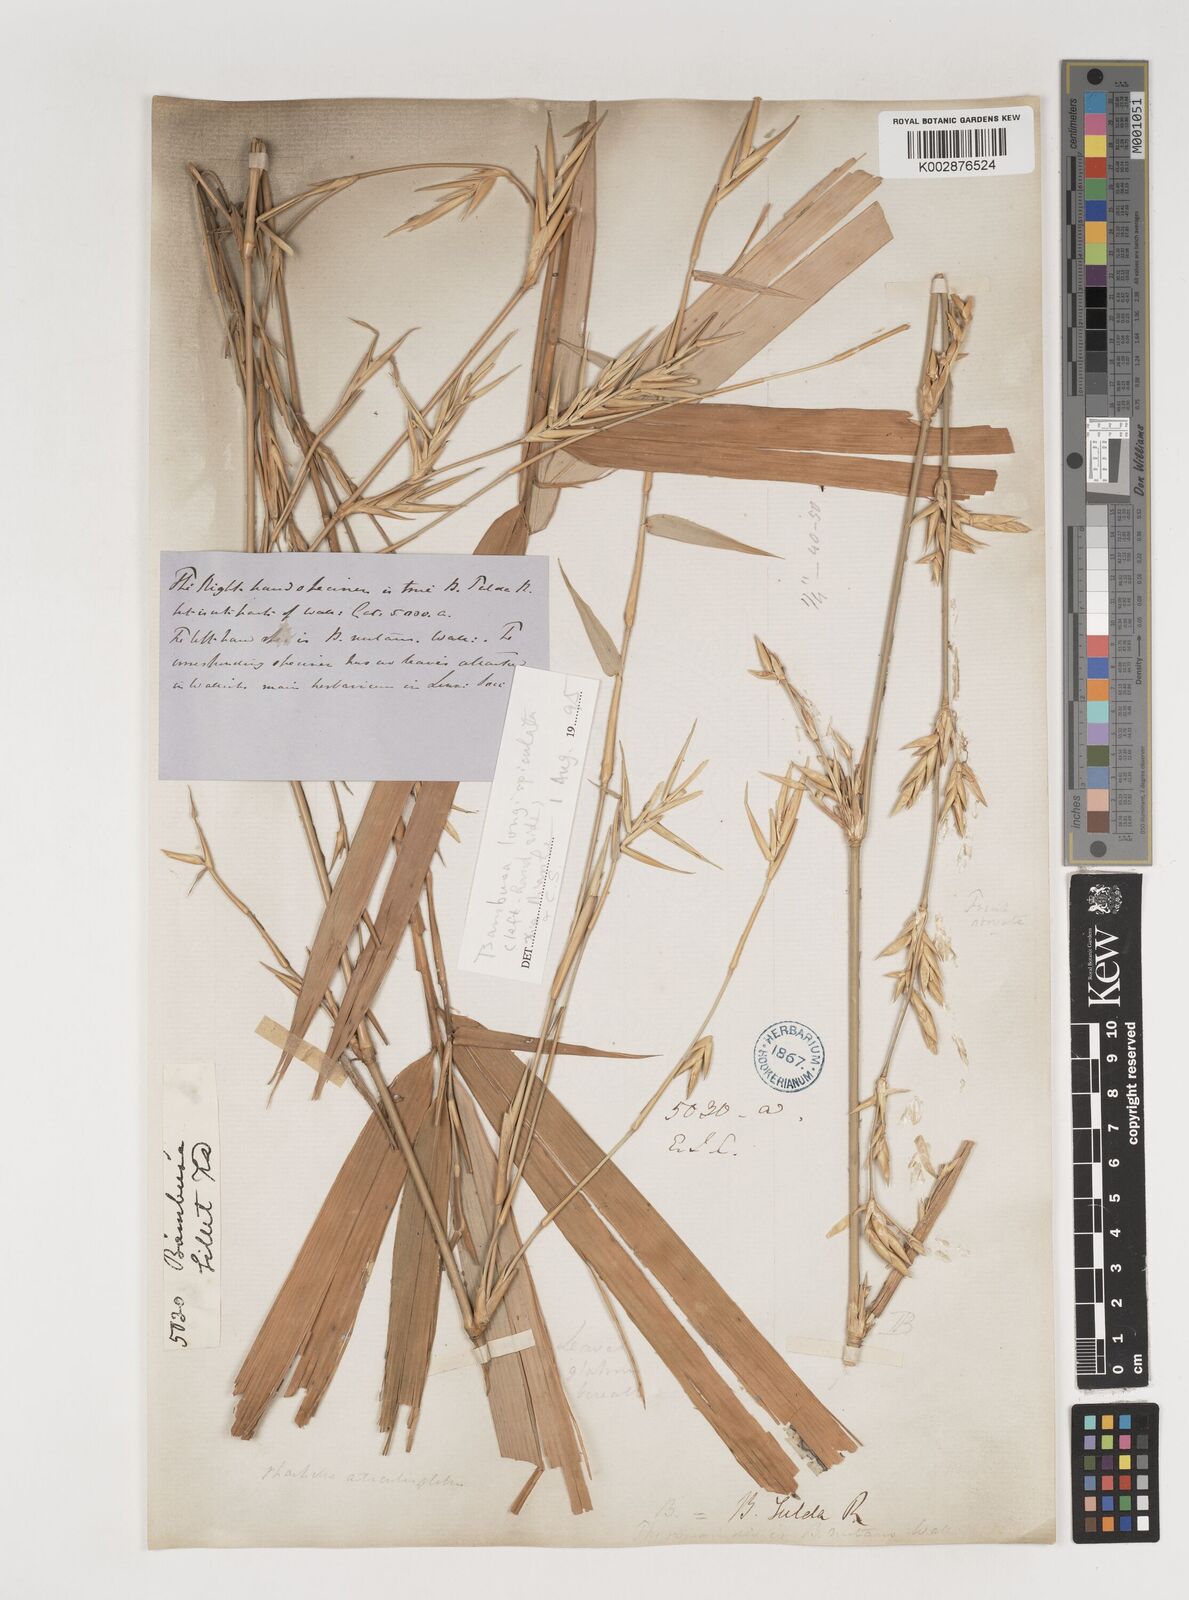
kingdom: Plantae
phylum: Tracheophyta
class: Liliopsida
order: Poales
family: Poaceae
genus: Bambusa
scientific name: Bambusa longispiculata
